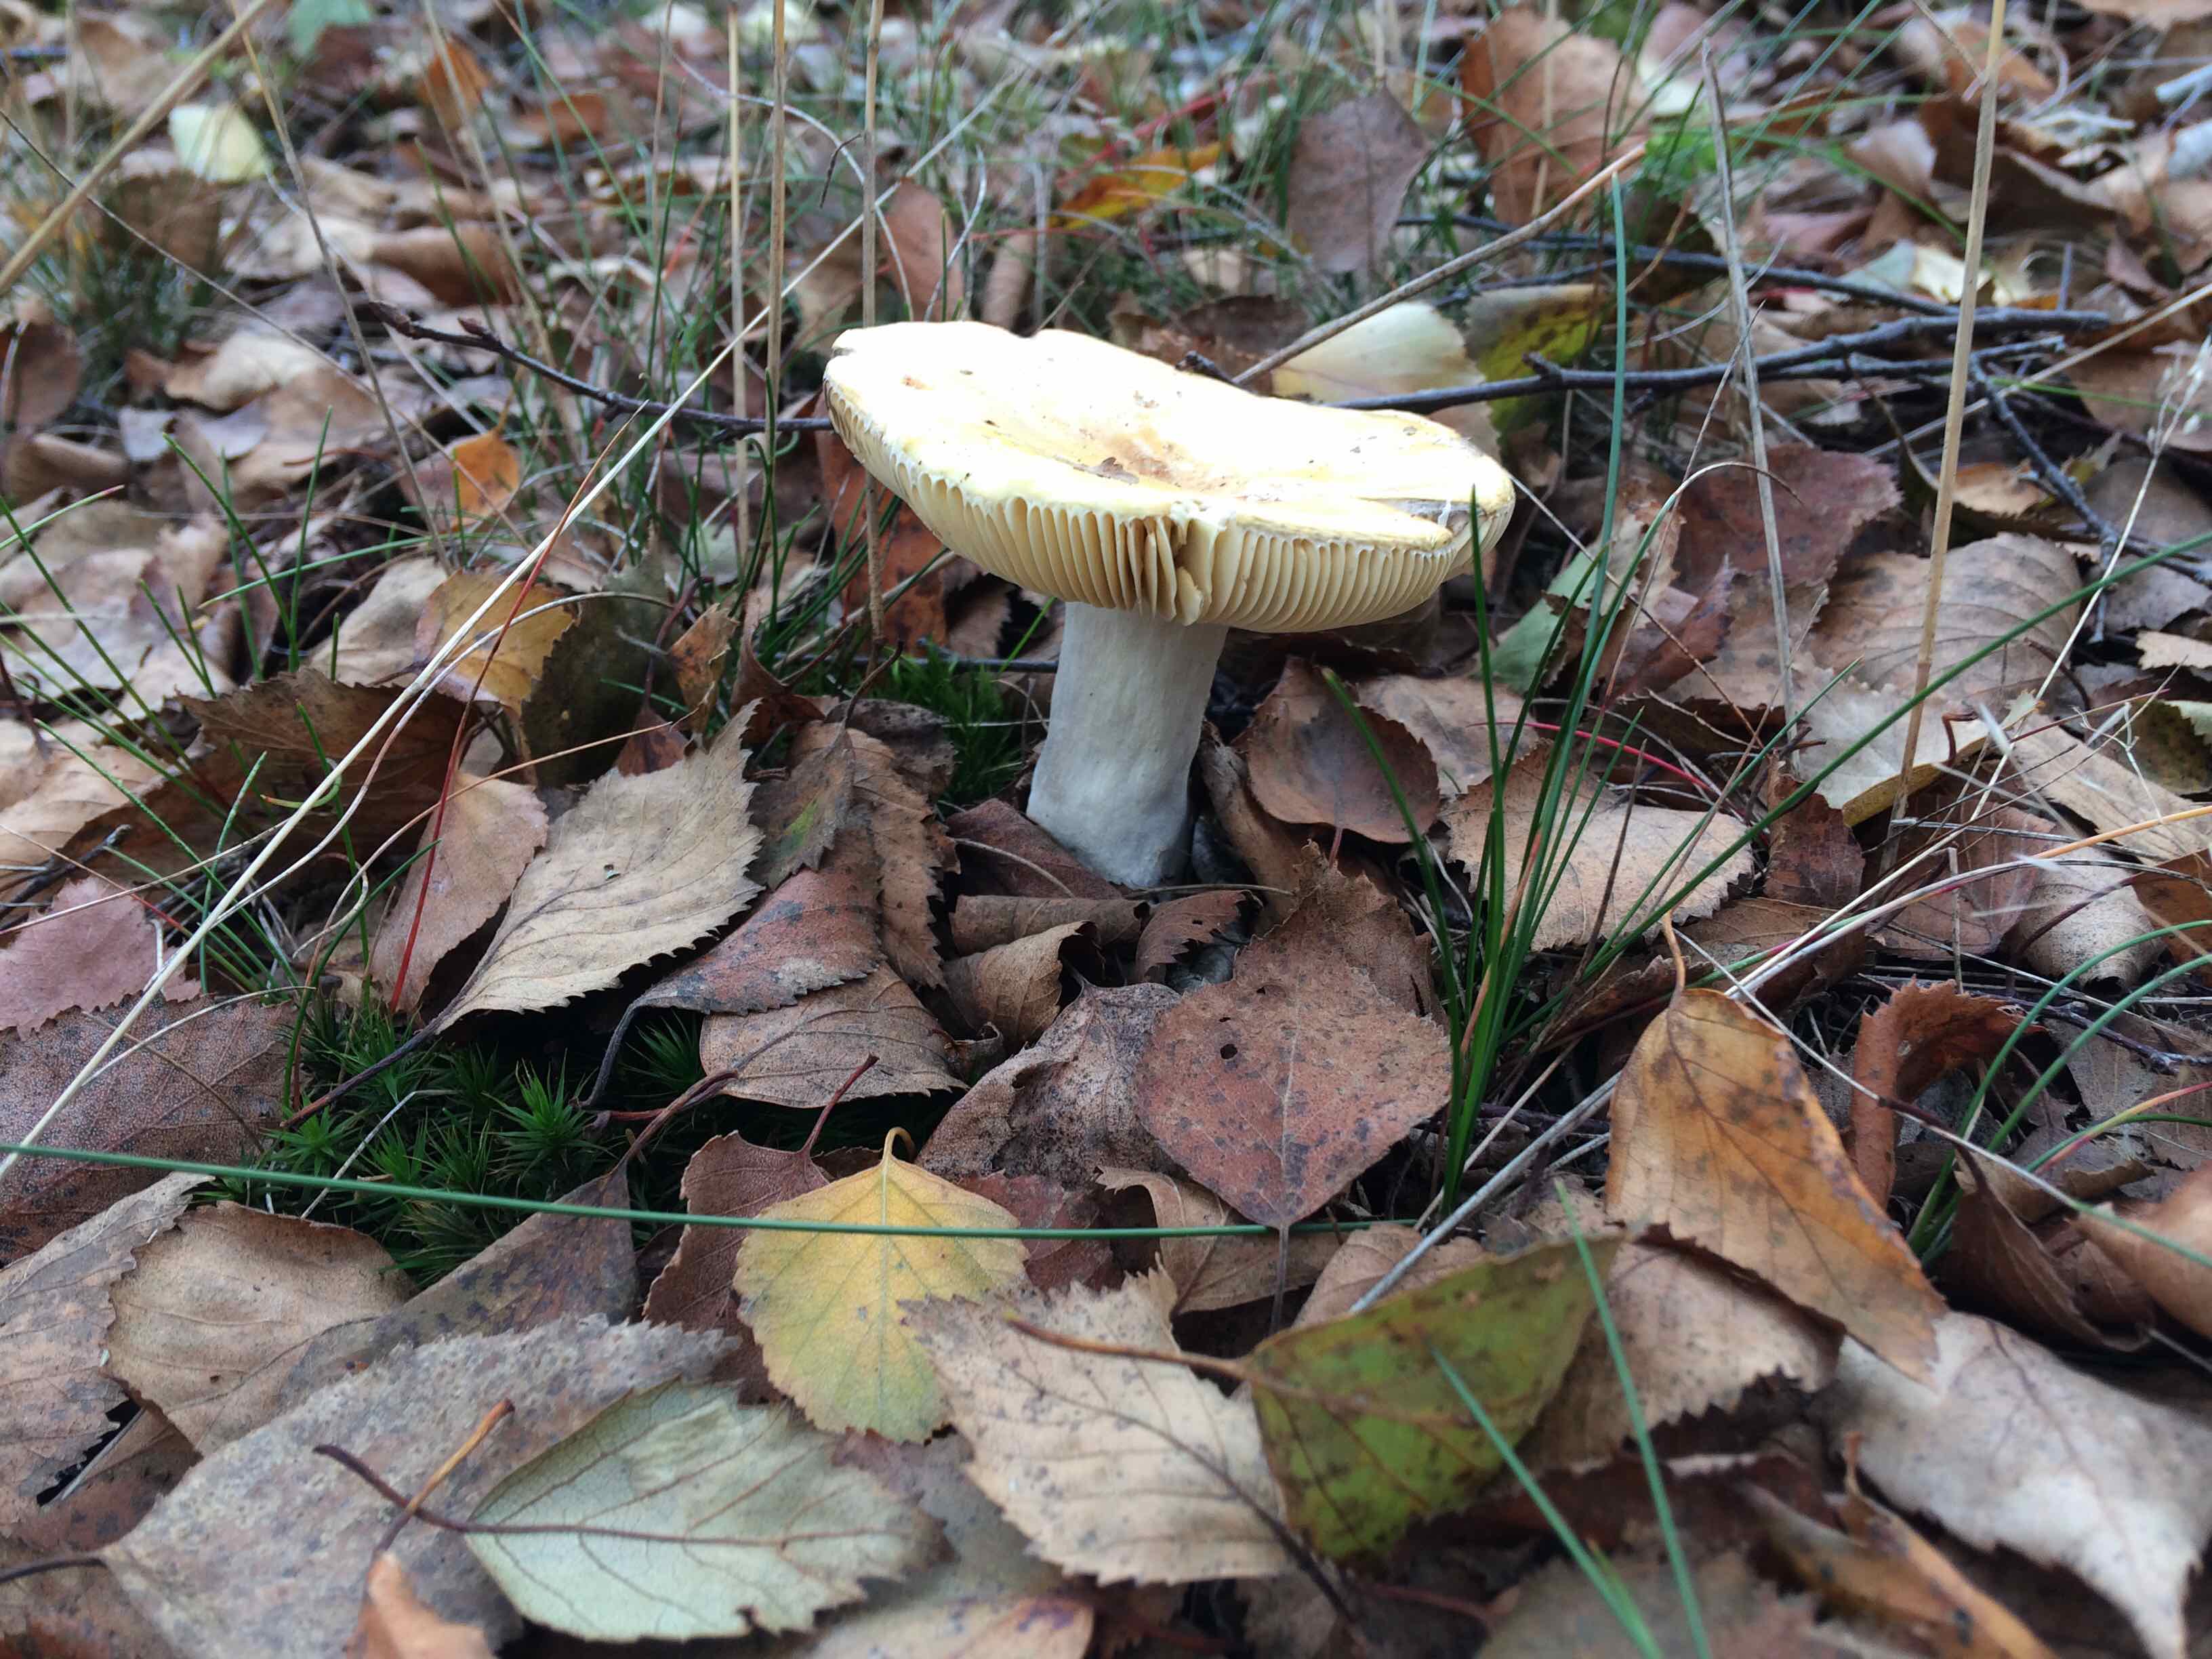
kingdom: Fungi
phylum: Basidiomycota
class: Agaricomycetes
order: Russulales
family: Russulaceae
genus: Russula
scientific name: Russula claroflava
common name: birke-skørhat
